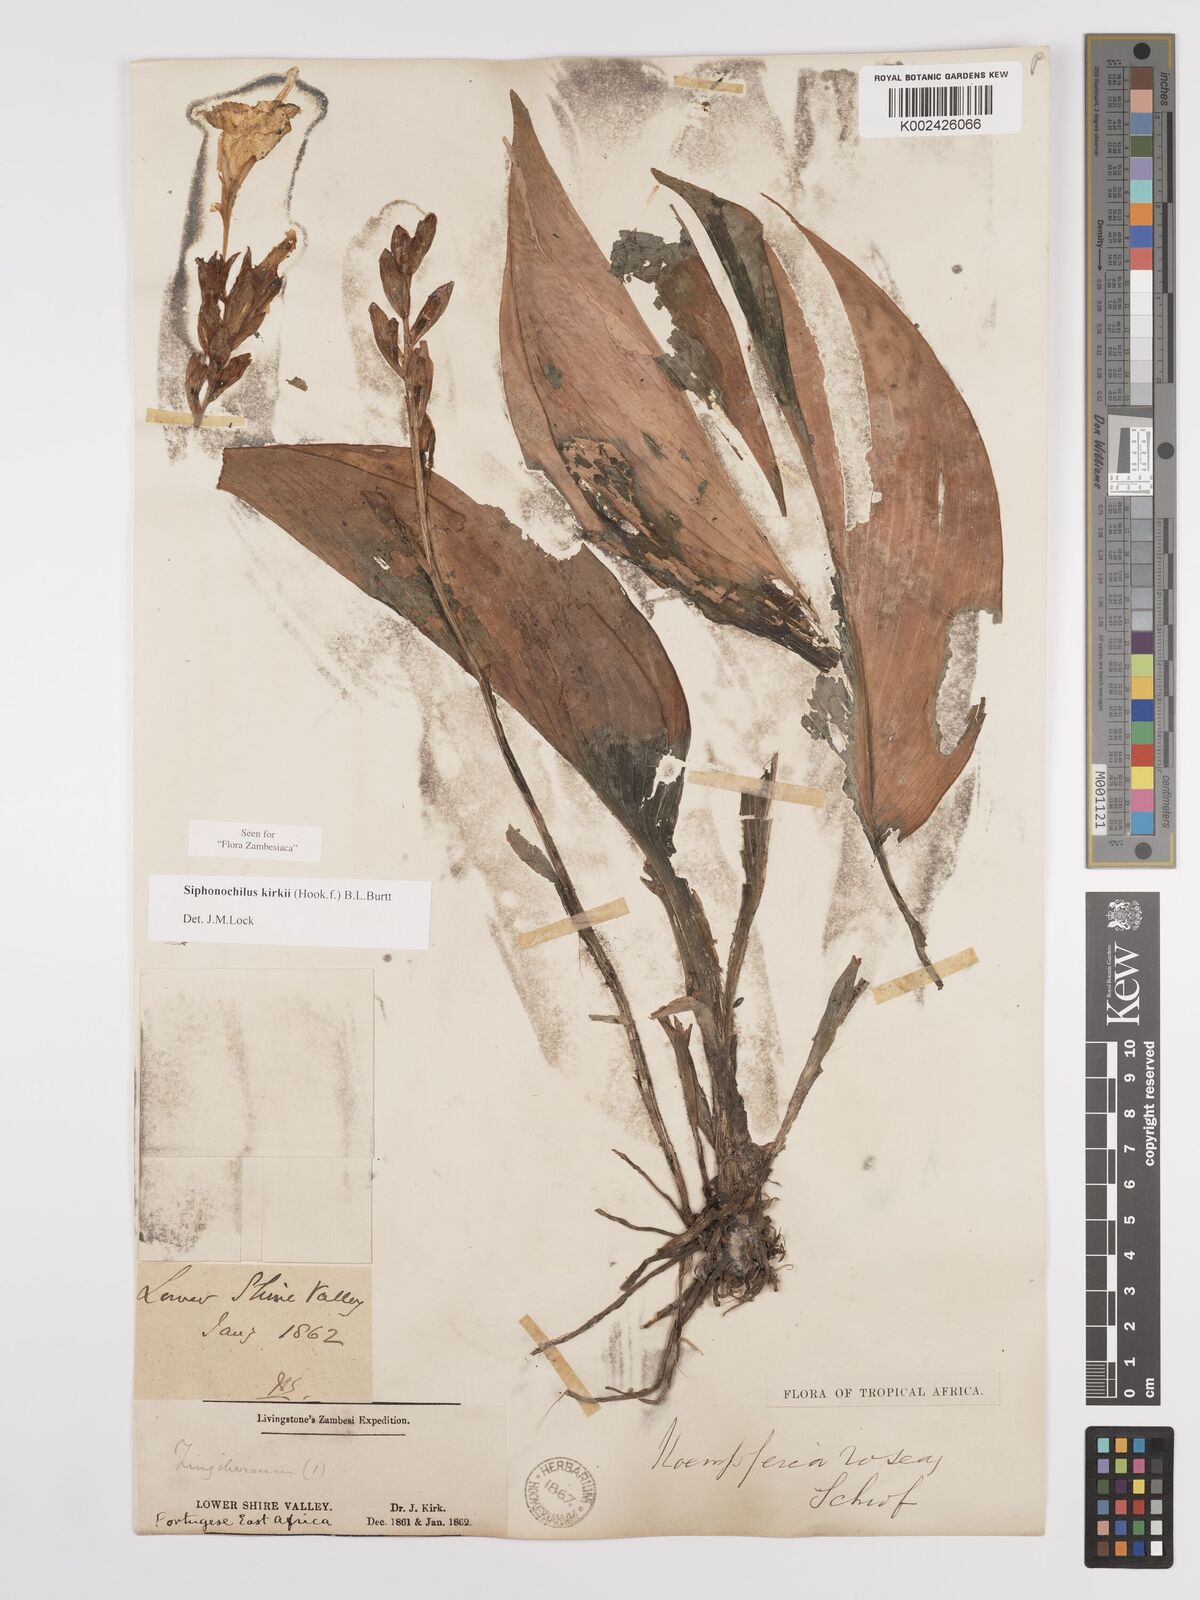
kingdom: Plantae
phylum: Tracheophyta
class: Liliopsida
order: Zingiberales
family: Zingiberaceae
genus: Siphonochilus
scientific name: Siphonochilus kirkii
